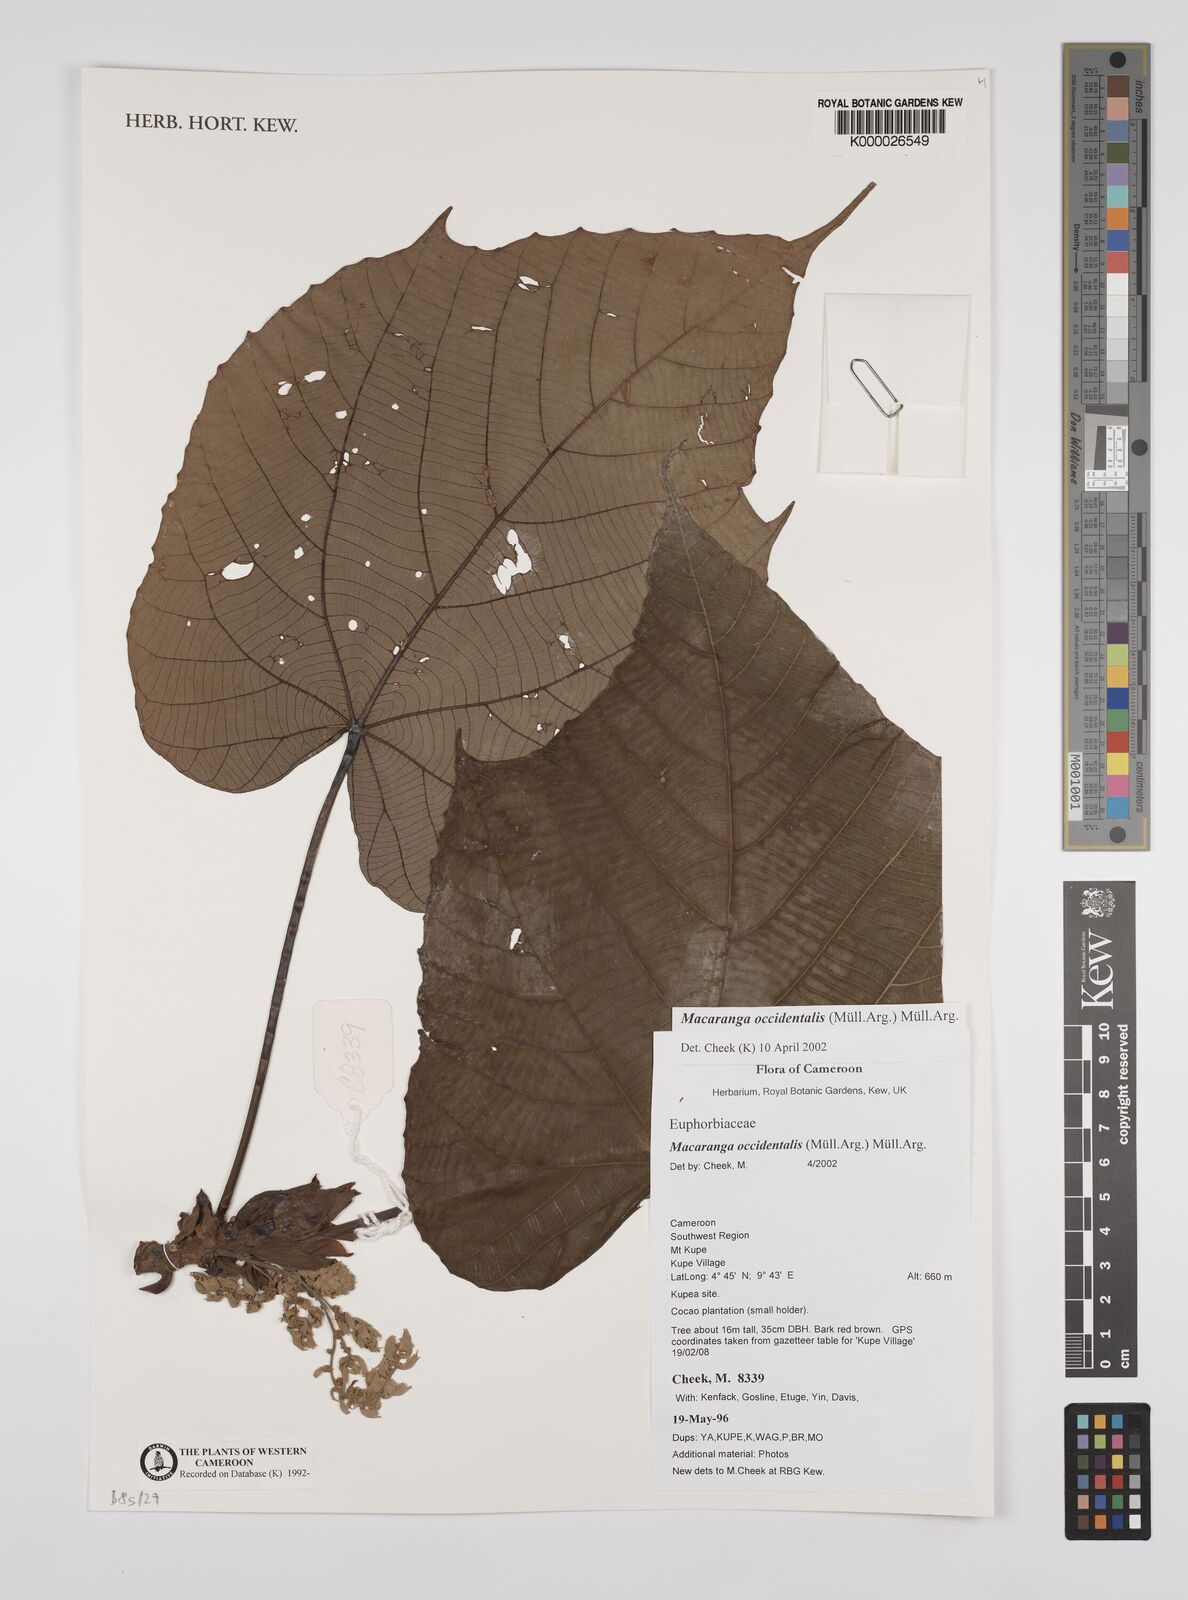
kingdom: Plantae
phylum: Tracheophyta
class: Magnoliopsida
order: Malpighiales
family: Euphorbiaceae
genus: Macaranga
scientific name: Macaranga
